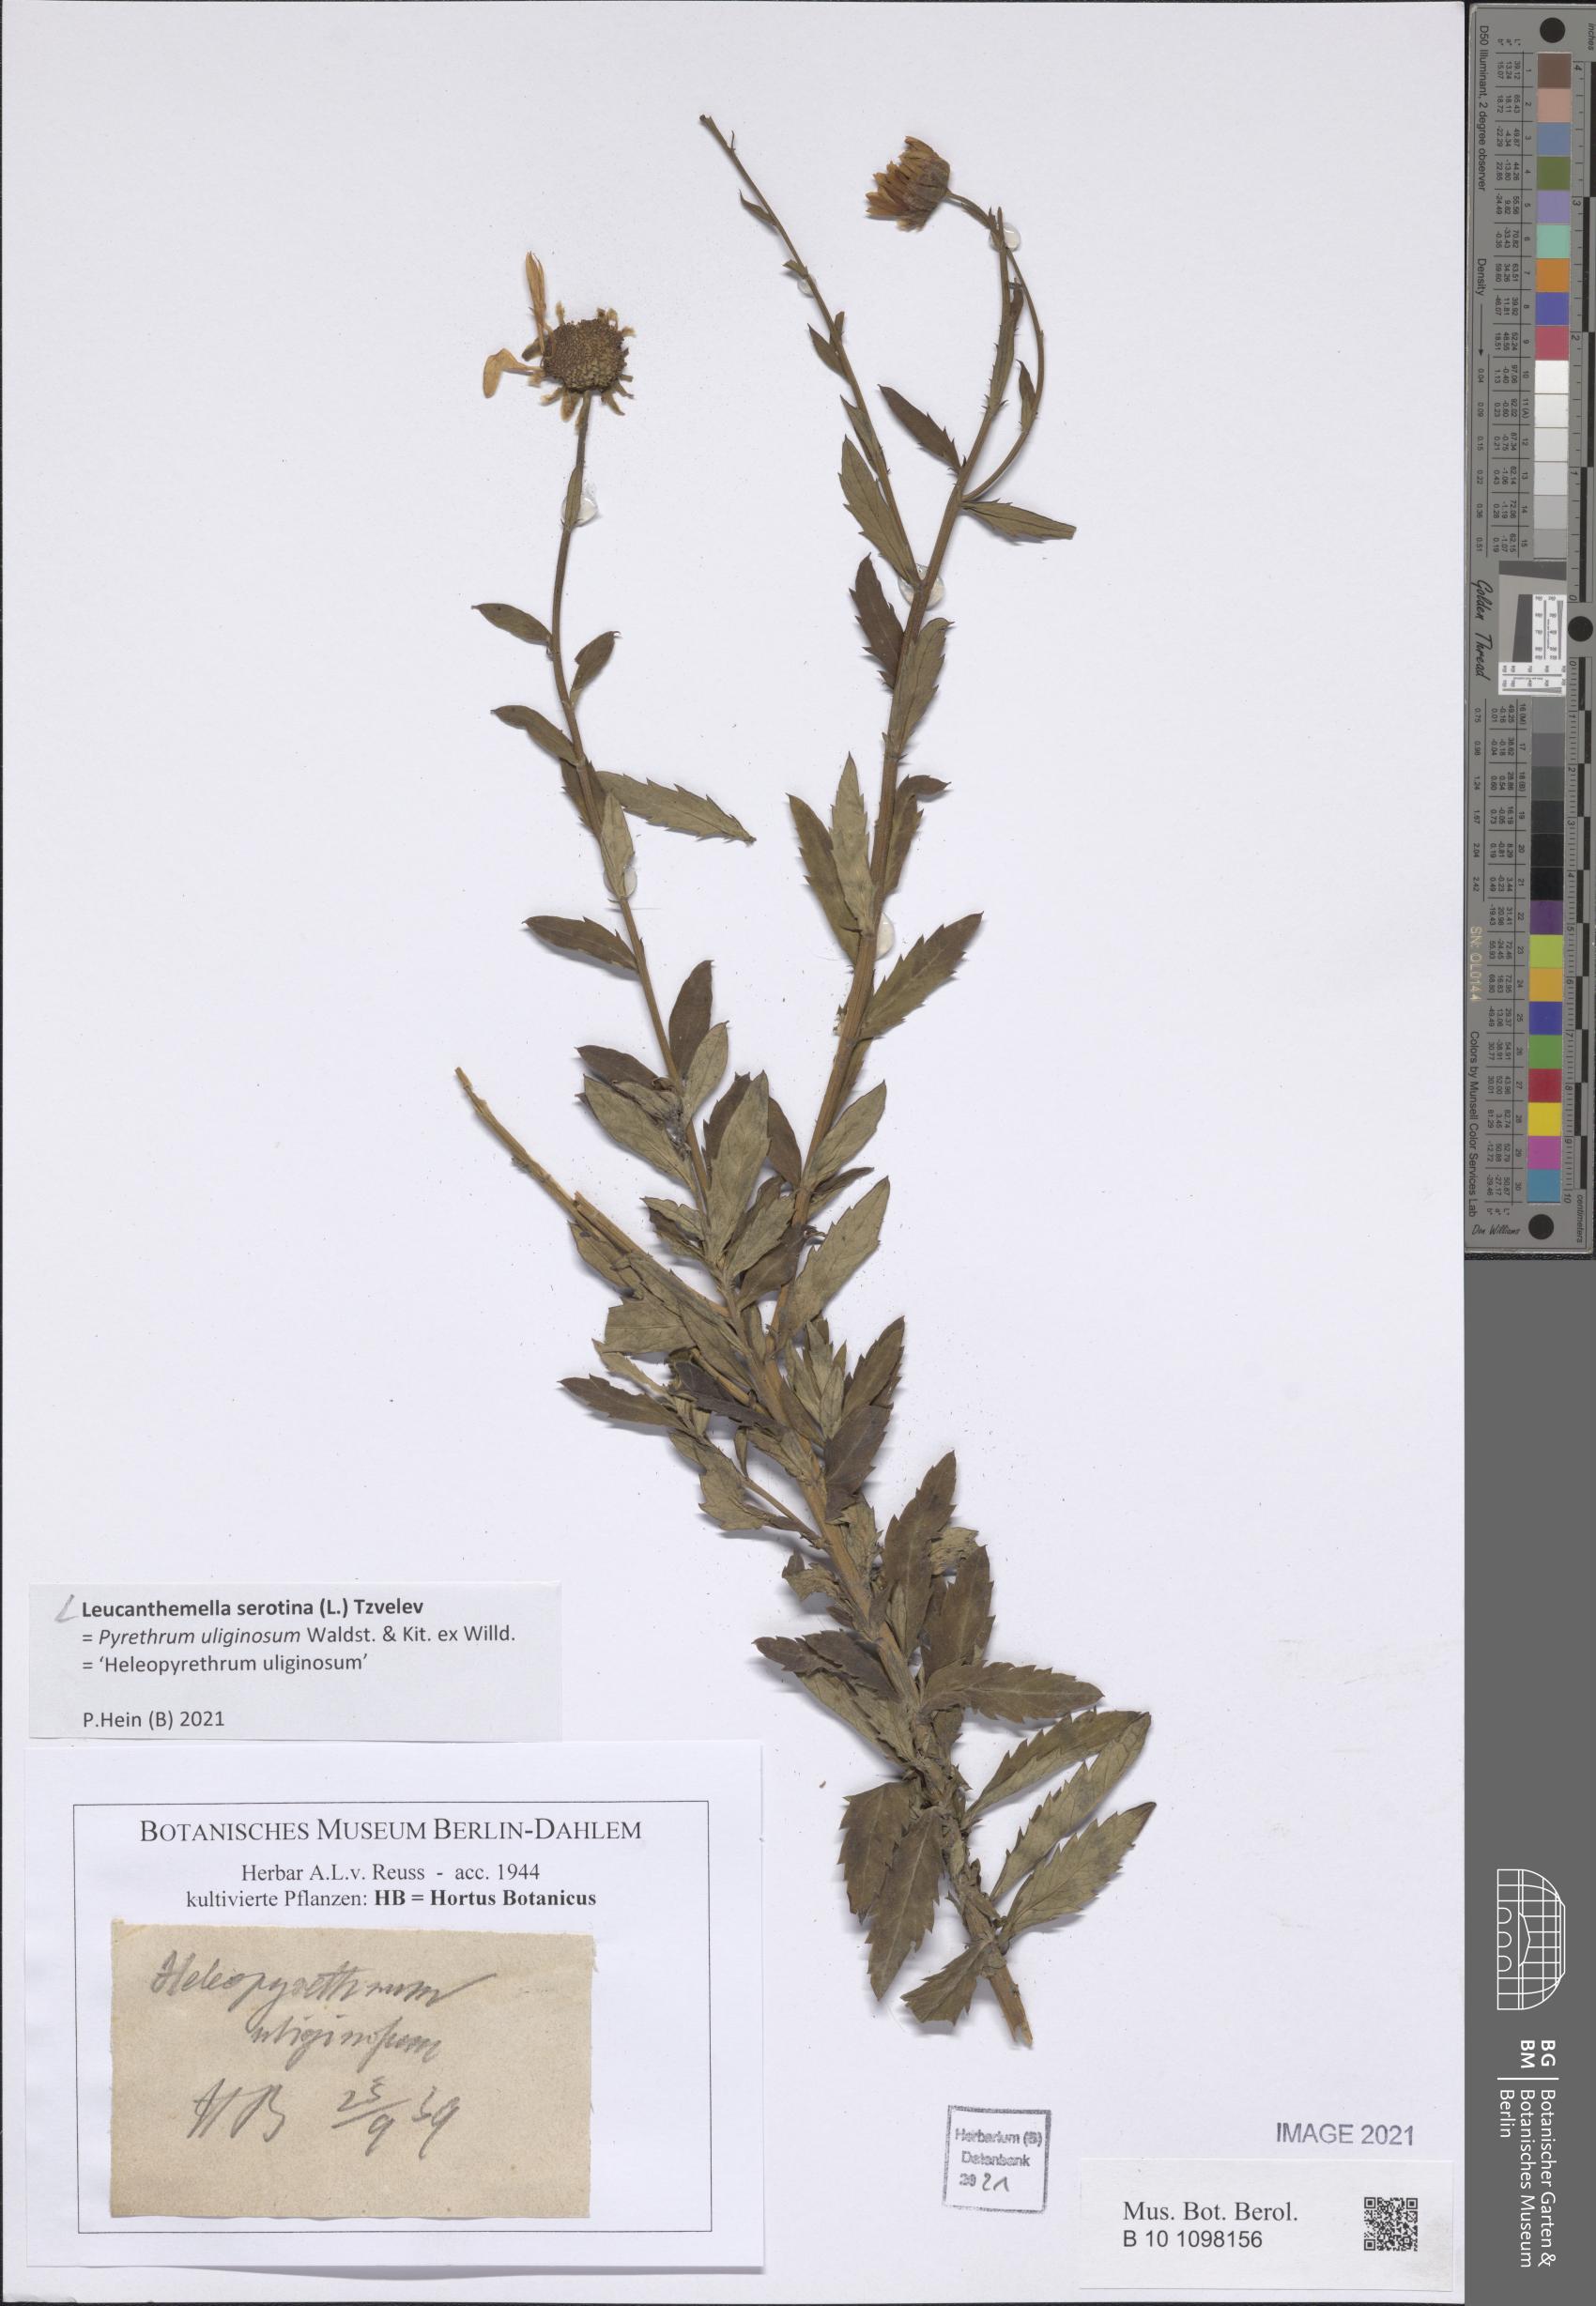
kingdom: Plantae
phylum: Tracheophyta
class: Magnoliopsida
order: Asterales
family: Asteraceae
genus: Leucanthemella
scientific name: Leucanthemella serotina
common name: Autumn oxeye
